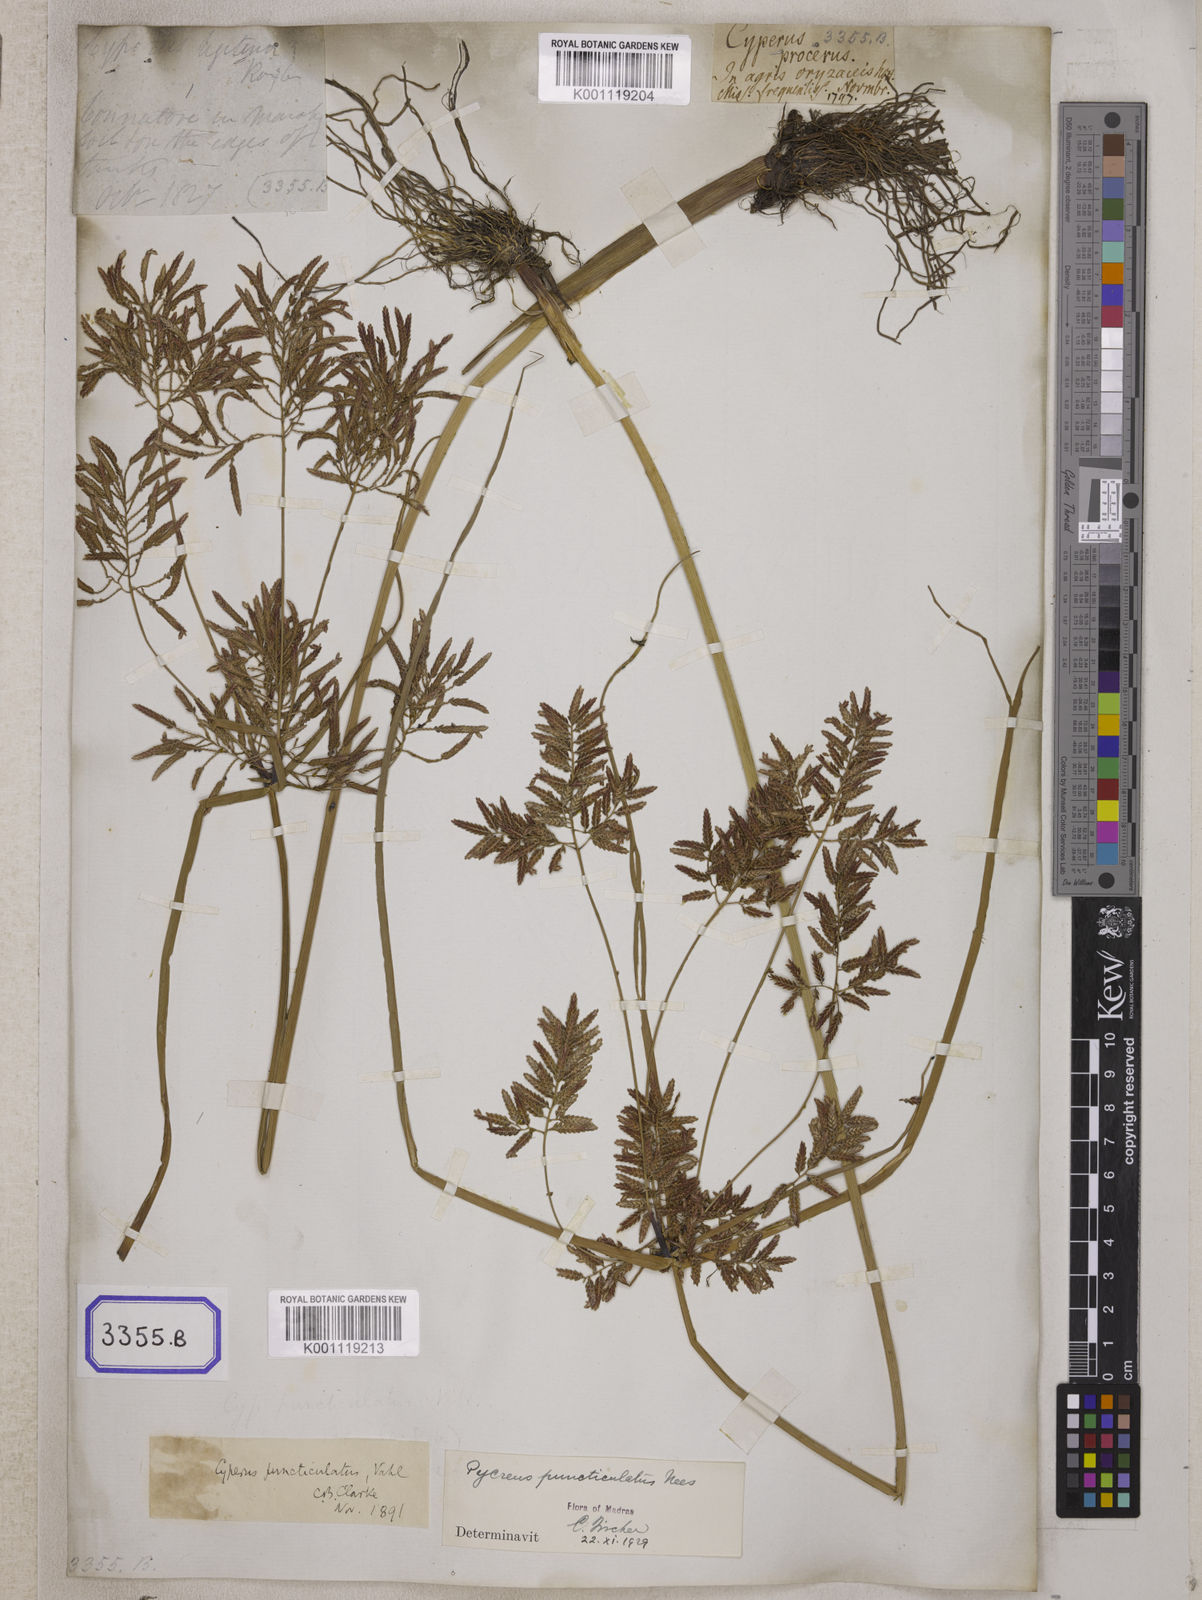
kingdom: Plantae
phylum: Tracheophyta
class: Liliopsida
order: Poales
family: Cyperaceae
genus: Cyperus
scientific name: Cyperus
